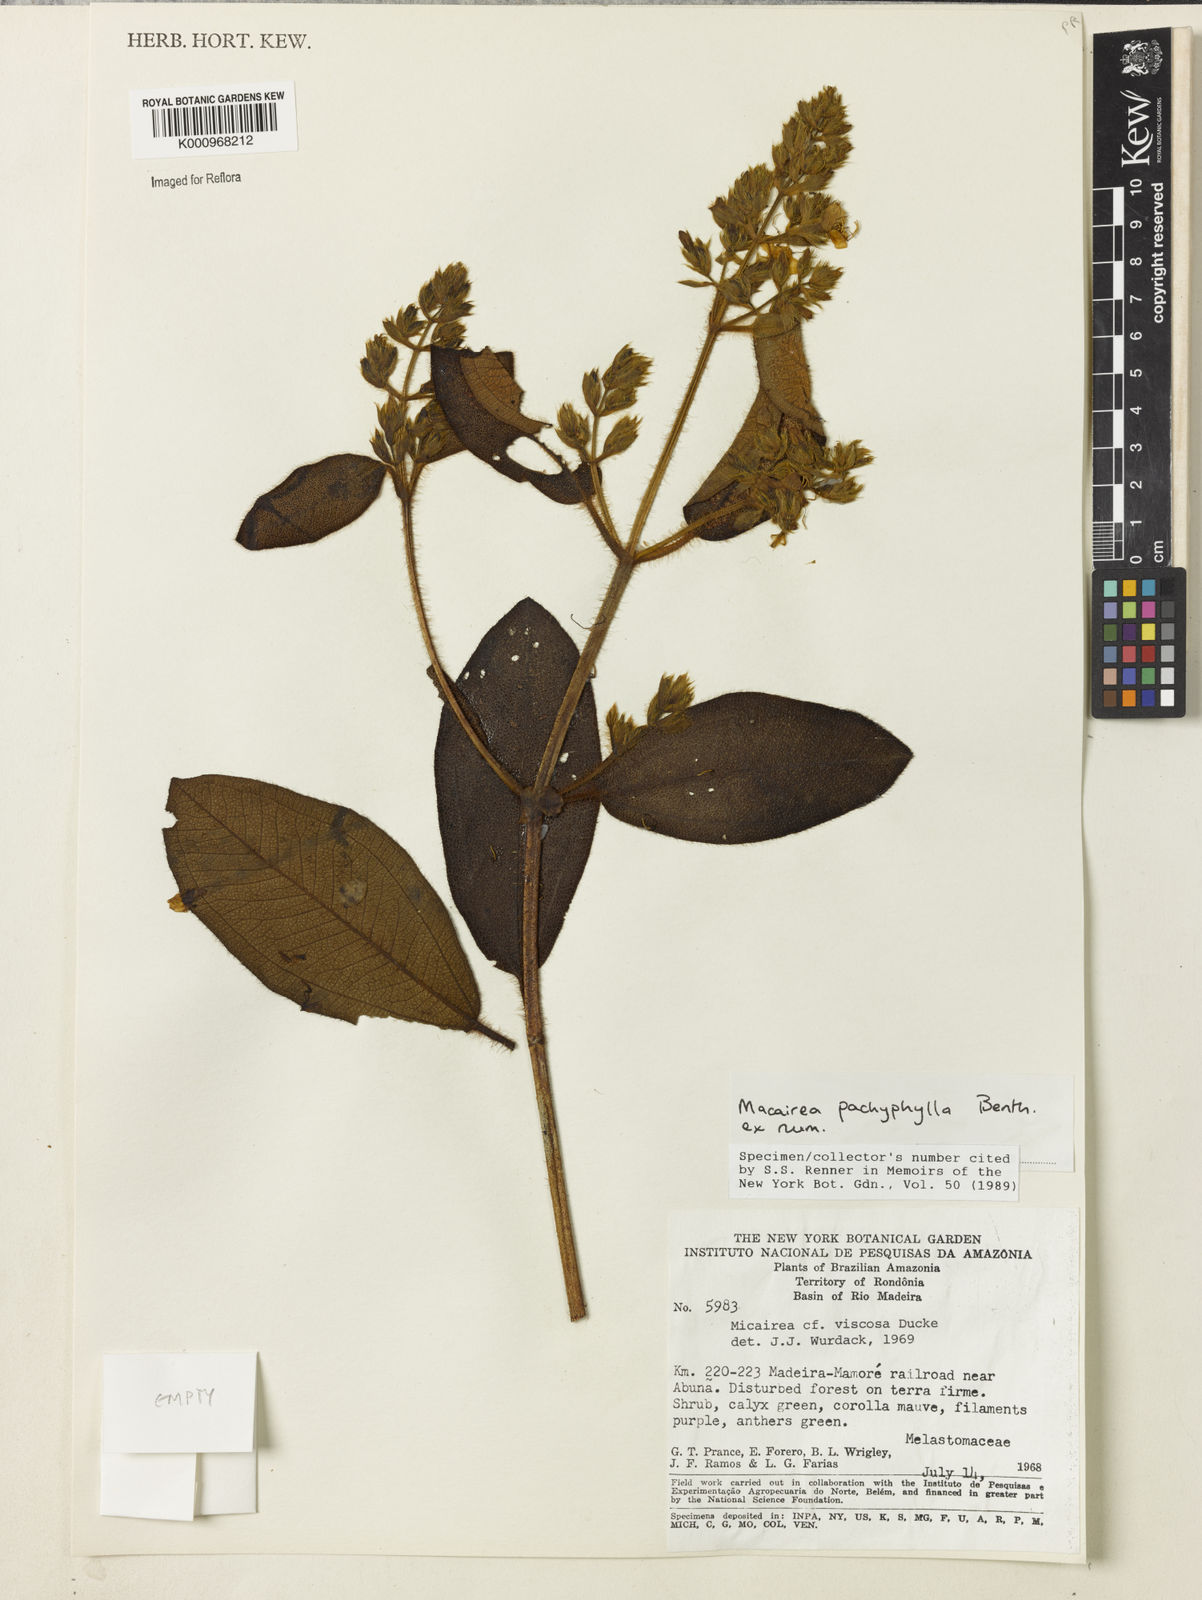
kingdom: Plantae
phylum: Tracheophyta
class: Magnoliopsida
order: Myrtales
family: Melastomataceae
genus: Macairea
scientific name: Macairea pachyphylla
